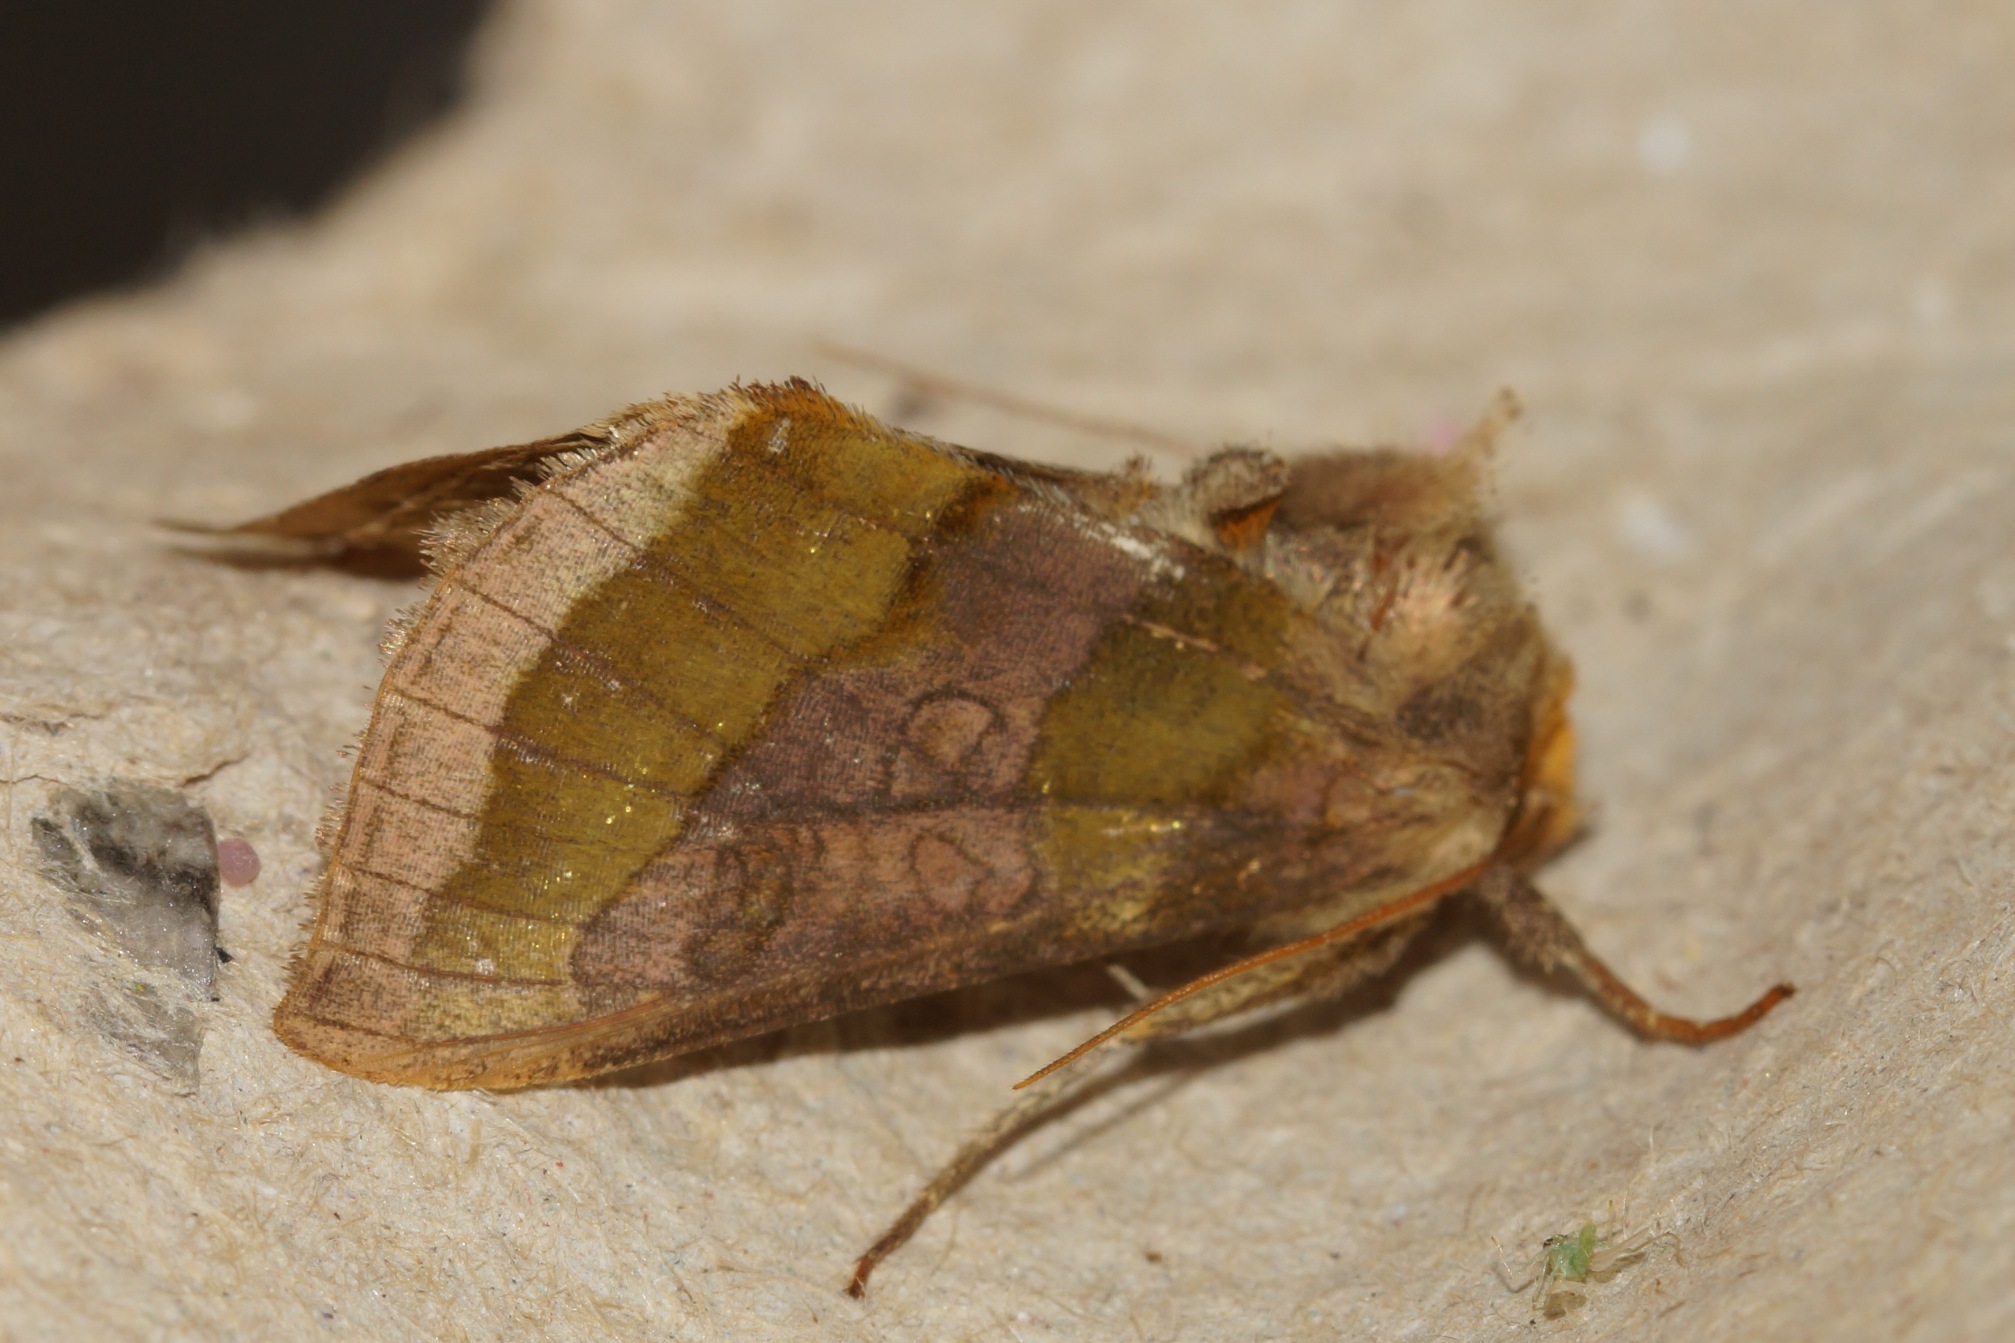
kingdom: Animalia
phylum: Arthropoda
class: Insecta
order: Lepidoptera
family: Noctuidae
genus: Diachrysia
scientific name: Diachrysia chrysitis
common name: Messingugle
